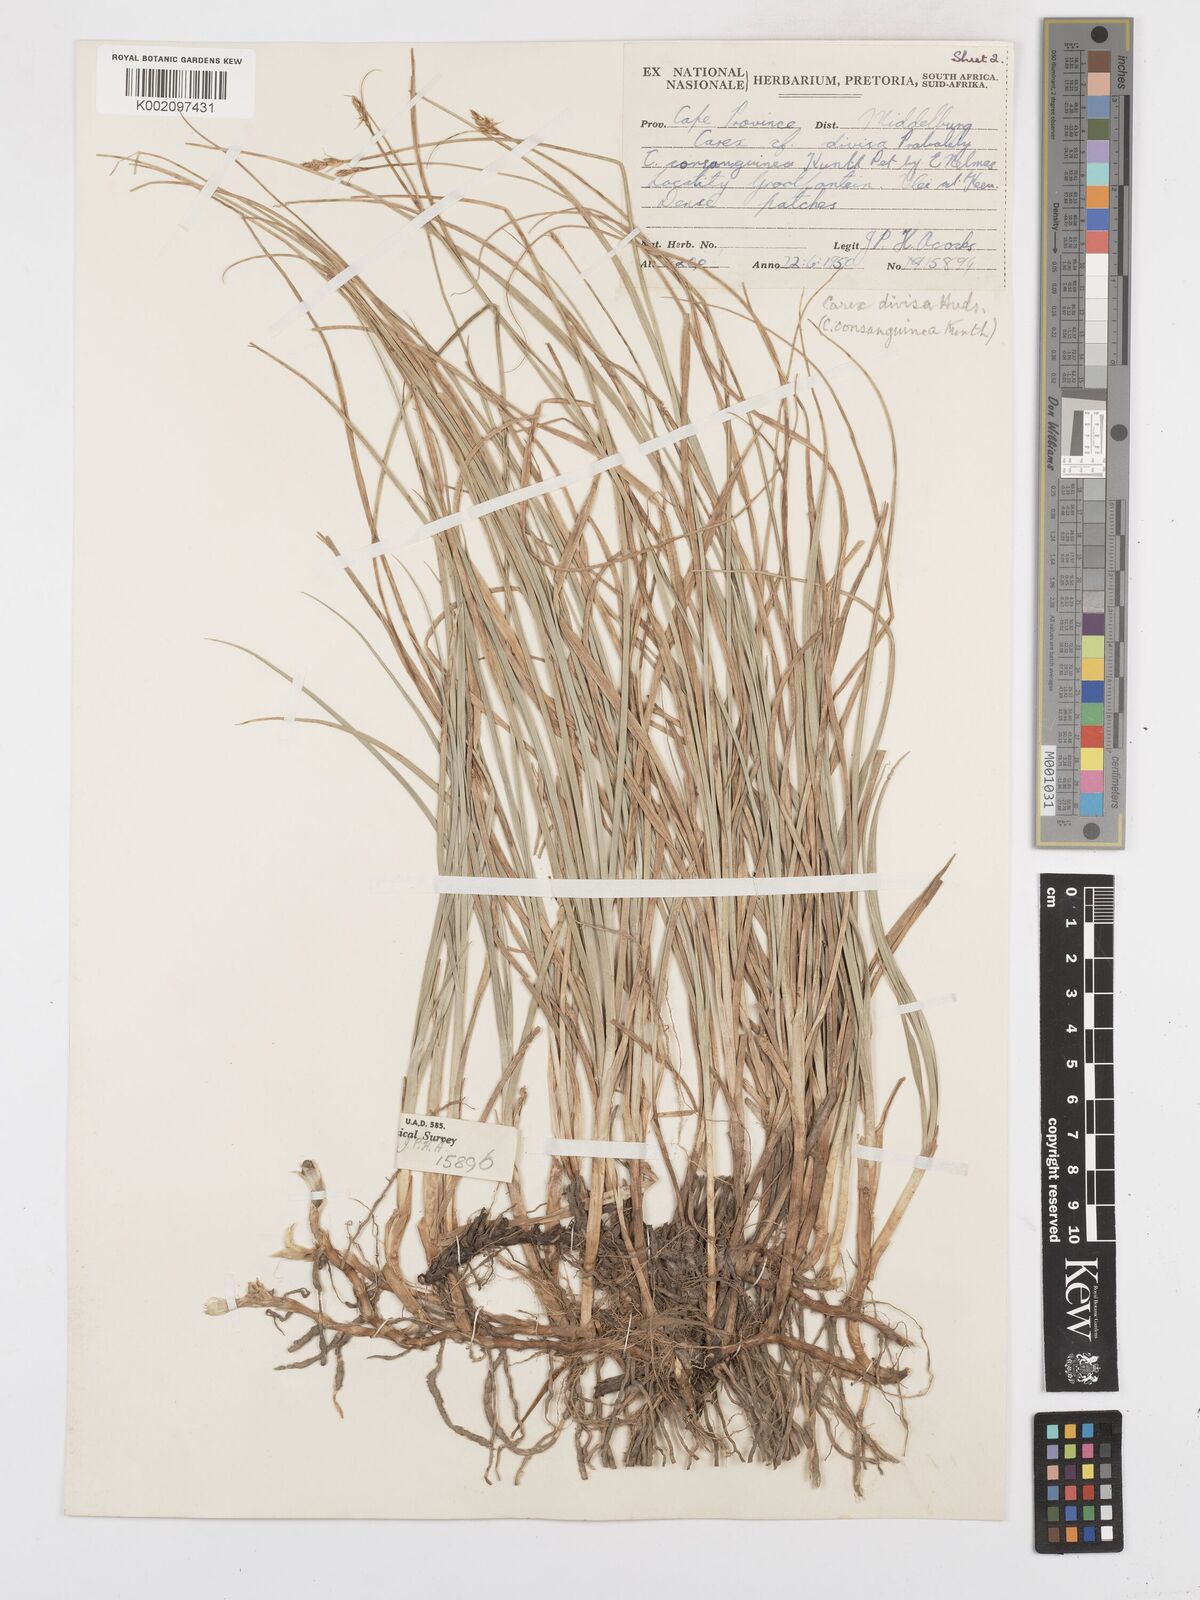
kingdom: Plantae
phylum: Tracheophyta
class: Liliopsida
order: Poales
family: Cyperaceae
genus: Carex
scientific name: Carex divisa
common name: Divided sedge
